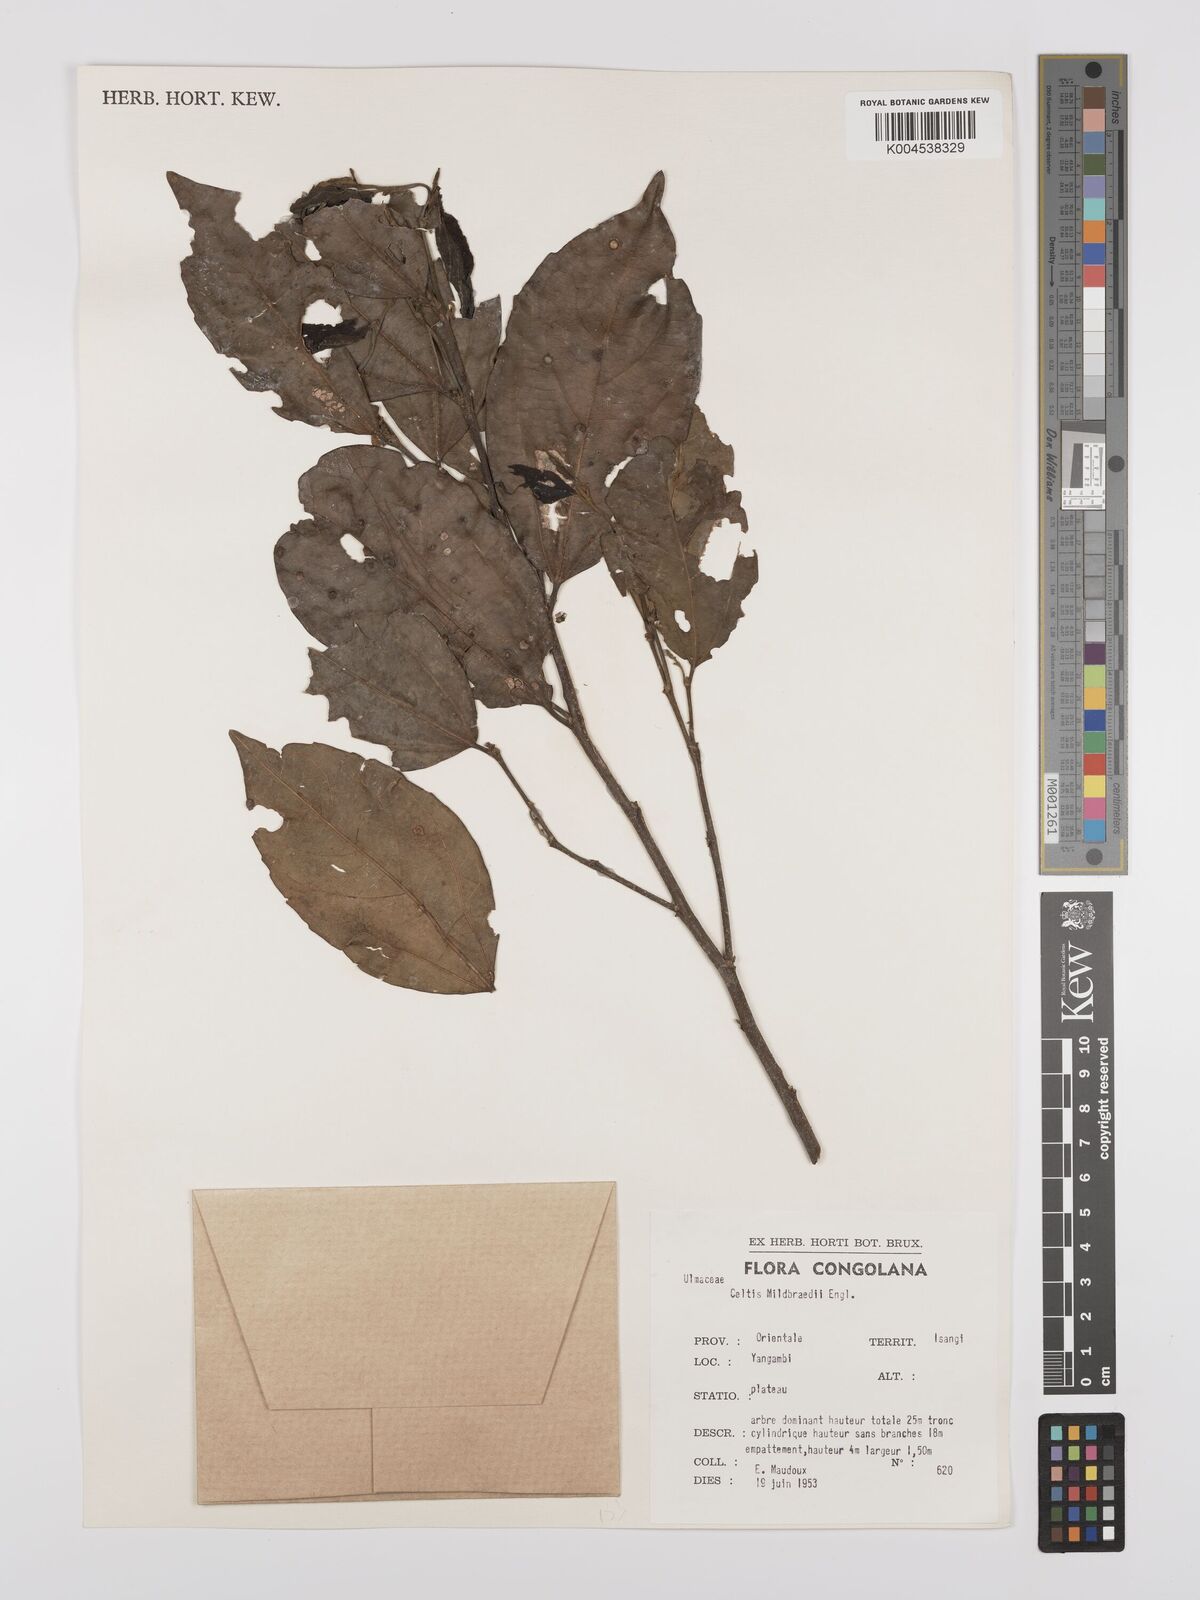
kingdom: Plantae
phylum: Tracheophyta
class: Magnoliopsida
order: Rosales
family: Cannabaceae
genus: Celtis
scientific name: Celtis mildbraedii
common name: Red-fruited stinkwood
